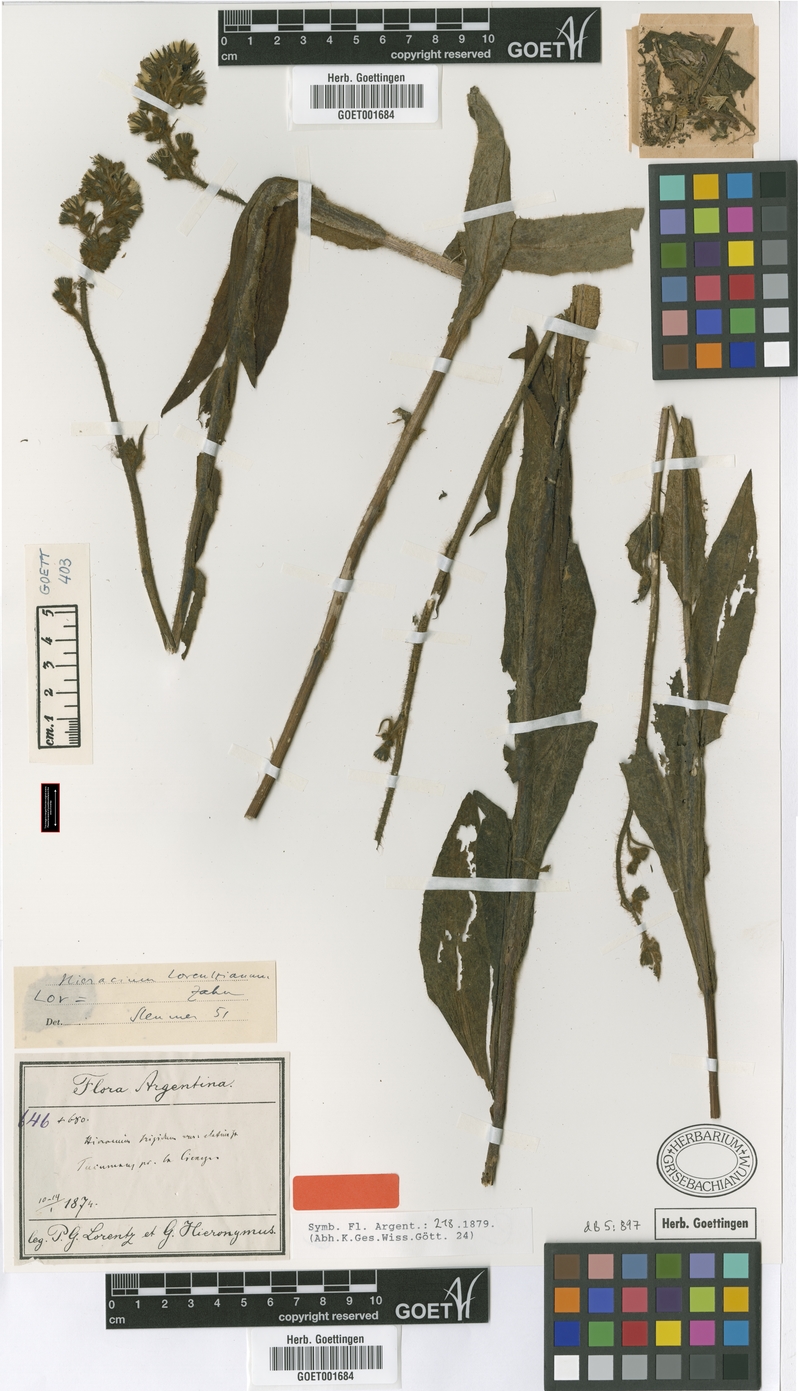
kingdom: Plantae
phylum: Tracheophyta
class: Magnoliopsida
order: Asterales
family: Asteraceae
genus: Hieracium
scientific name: Hieracium lorentzianum
